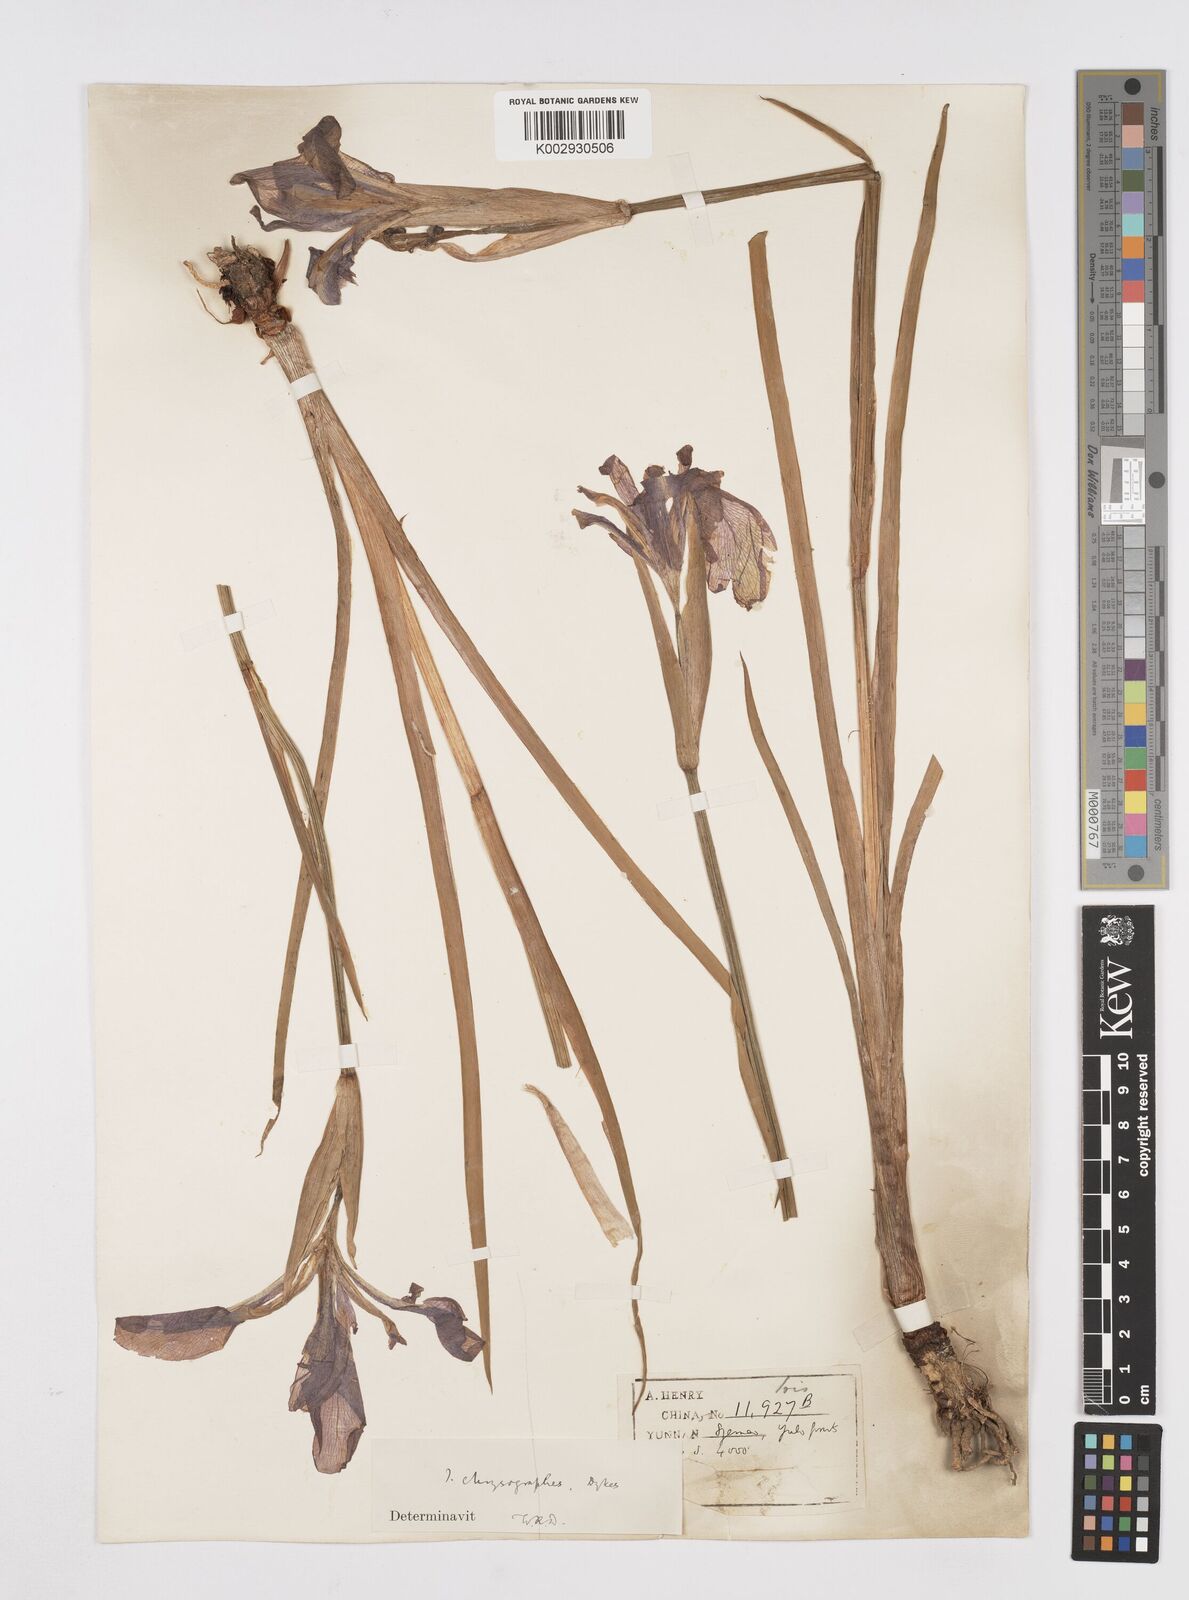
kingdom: Plantae
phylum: Tracheophyta
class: Liliopsida
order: Asparagales
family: Iridaceae
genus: Iris
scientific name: Iris chrysographes
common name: Gold-vein iris
